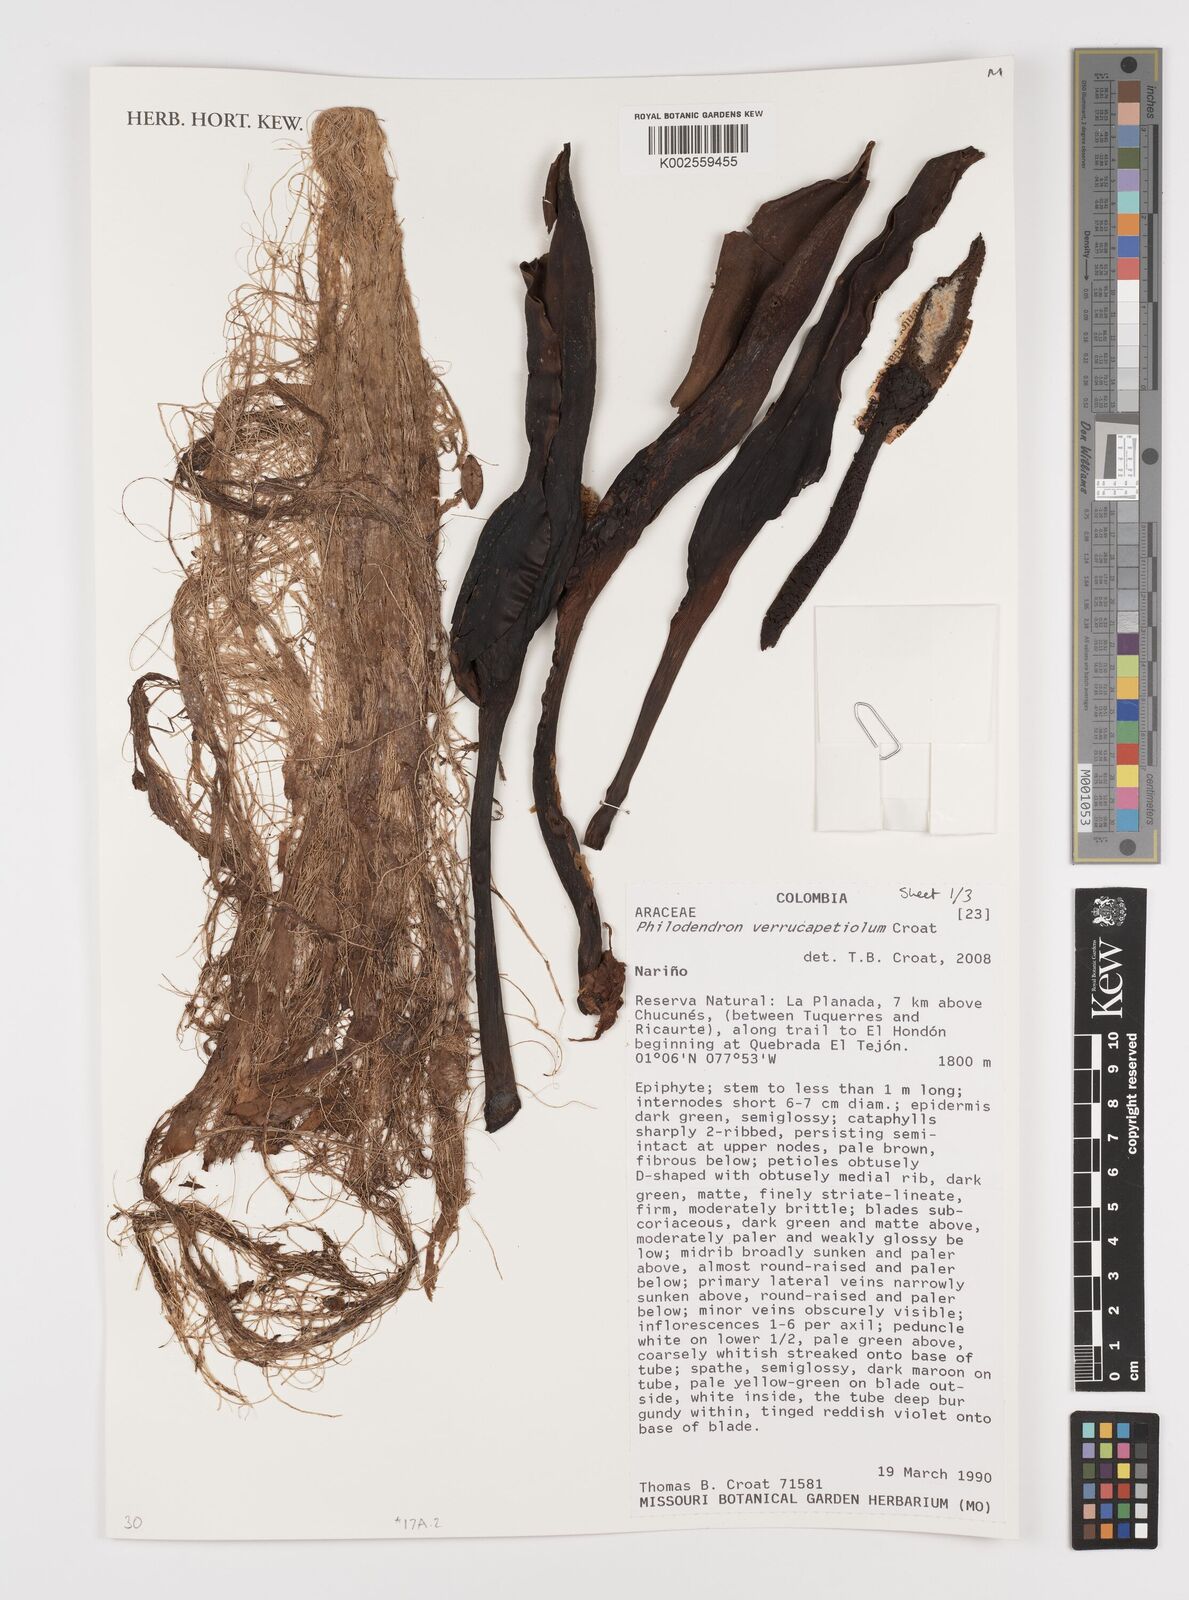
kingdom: Plantae
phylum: Tracheophyta
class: Liliopsida
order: Alismatales
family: Araceae
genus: Philodendron
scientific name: Philodendron verrucapetiolum
